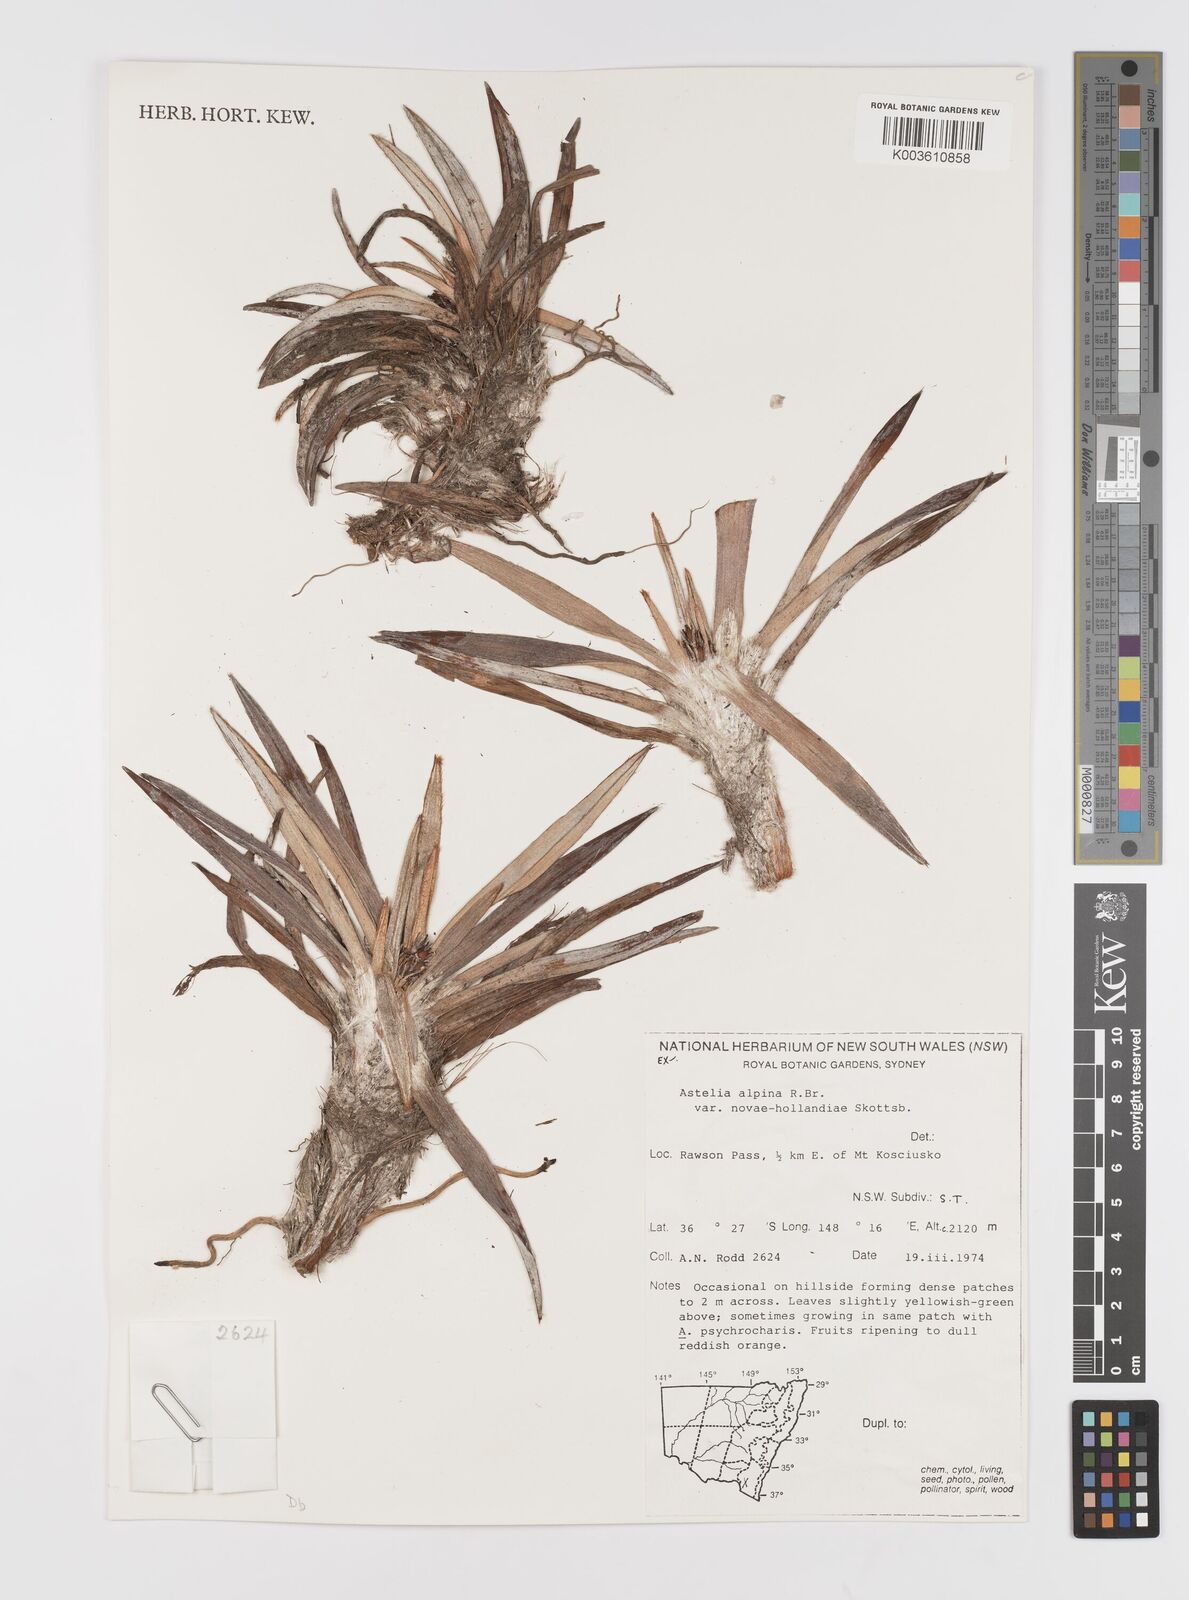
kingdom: Plantae
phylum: Tracheophyta
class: Liliopsida
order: Asparagales
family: Asteliaceae
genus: Astelia
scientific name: Astelia alpina
